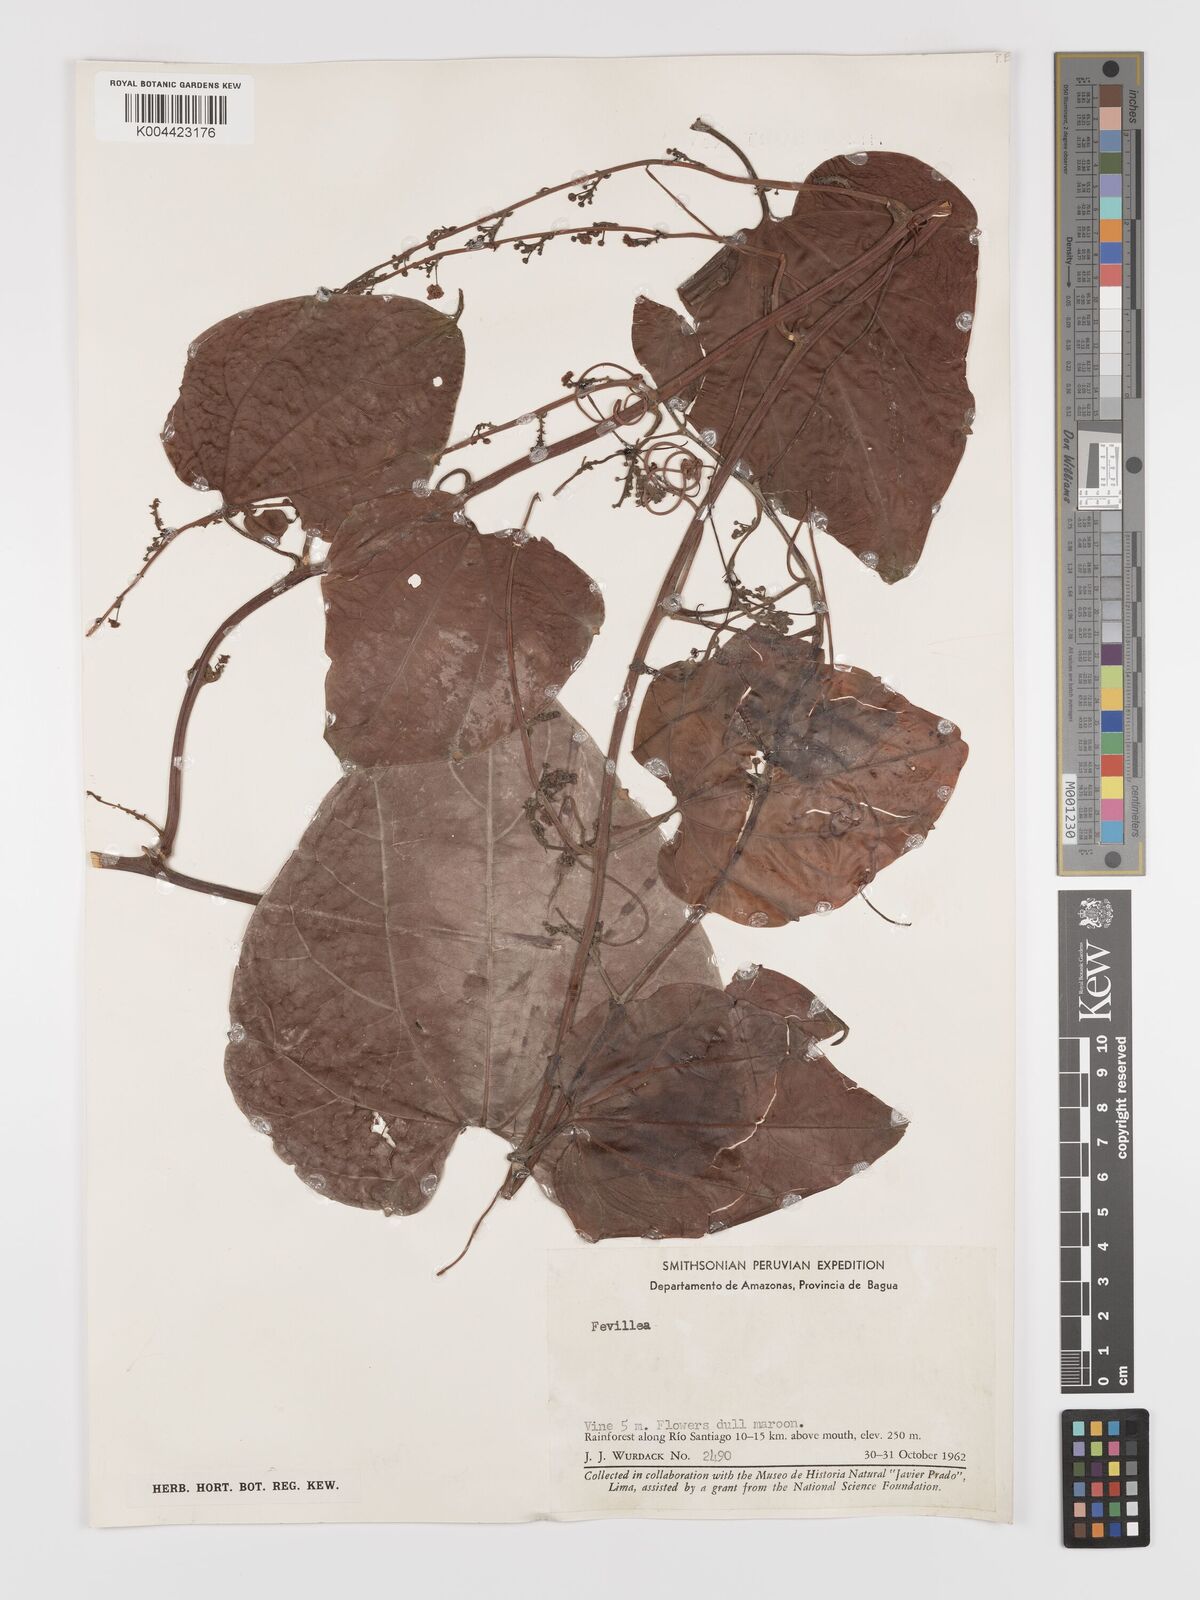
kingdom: Plantae
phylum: Tracheophyta
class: Magnoliopsida
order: Cucurbitales
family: Cucurbitaceae
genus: Fevillea
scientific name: Fevillea
